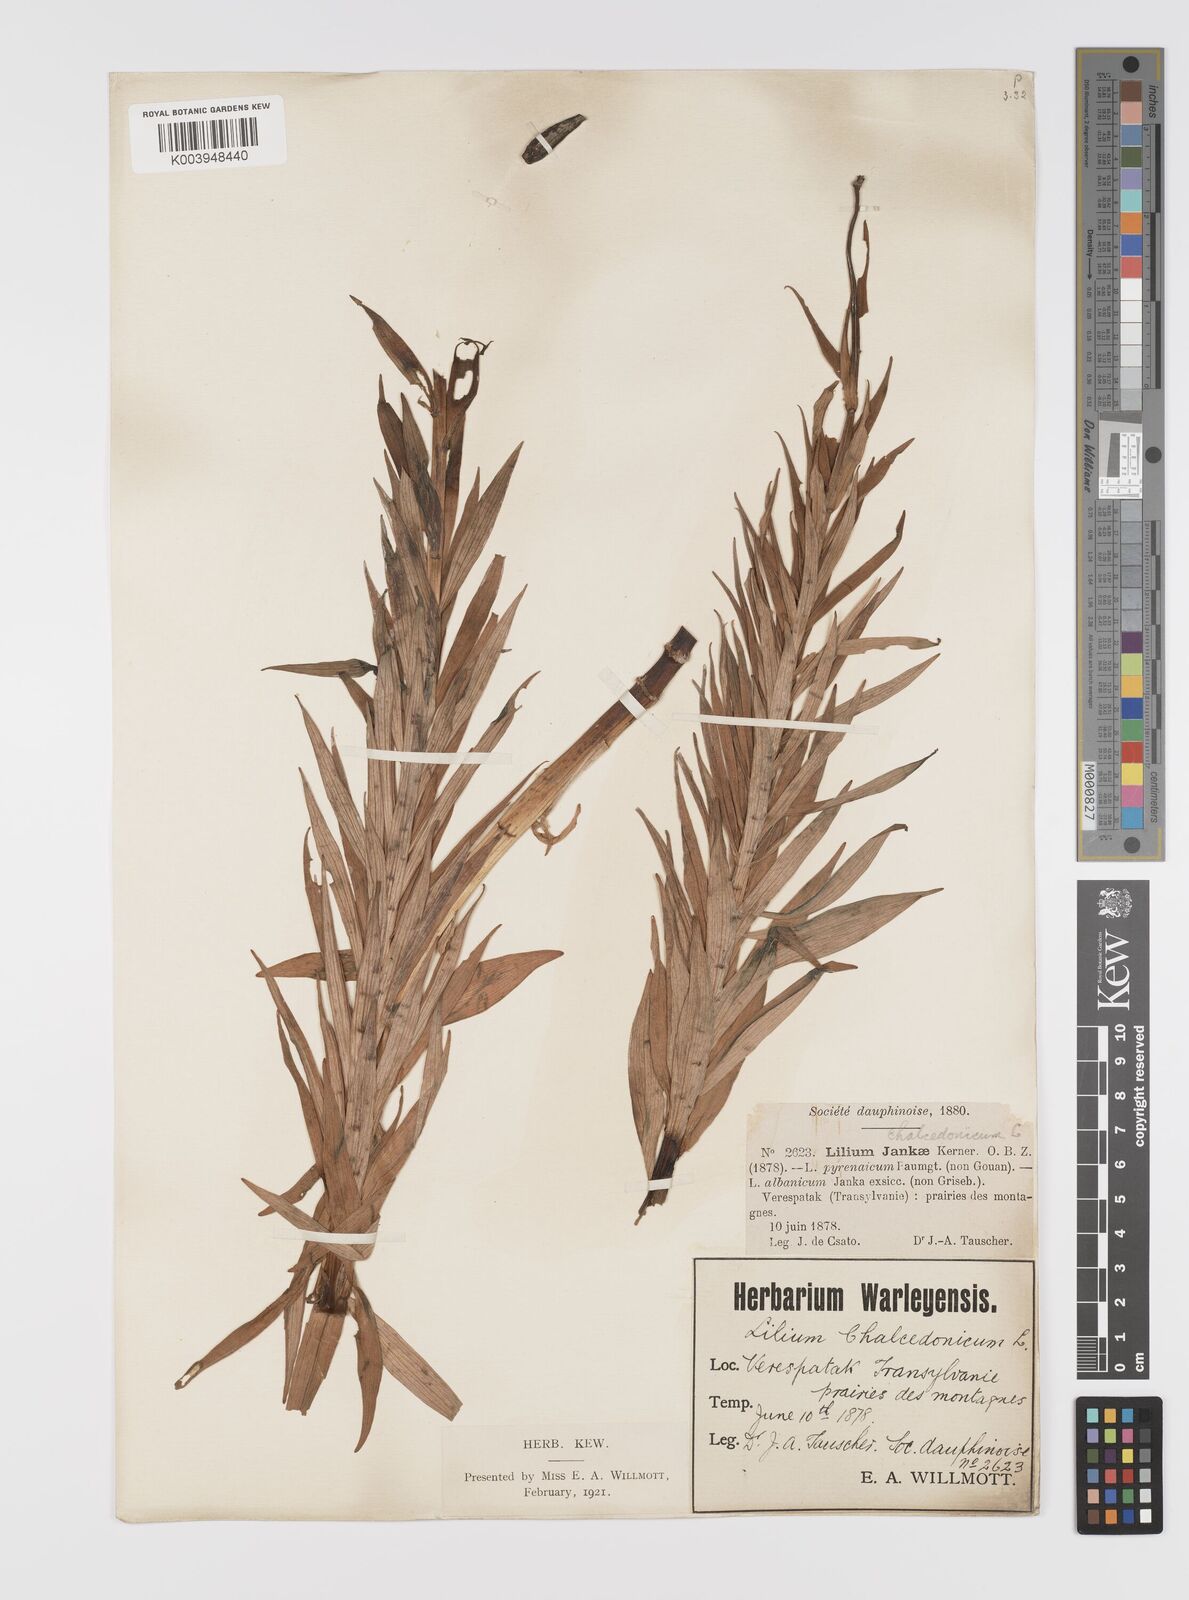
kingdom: Plantae
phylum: Tracheophyta
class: Liliopsida
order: Liliales
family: Liliaceae
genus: Lilium
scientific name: Lilium jankae
